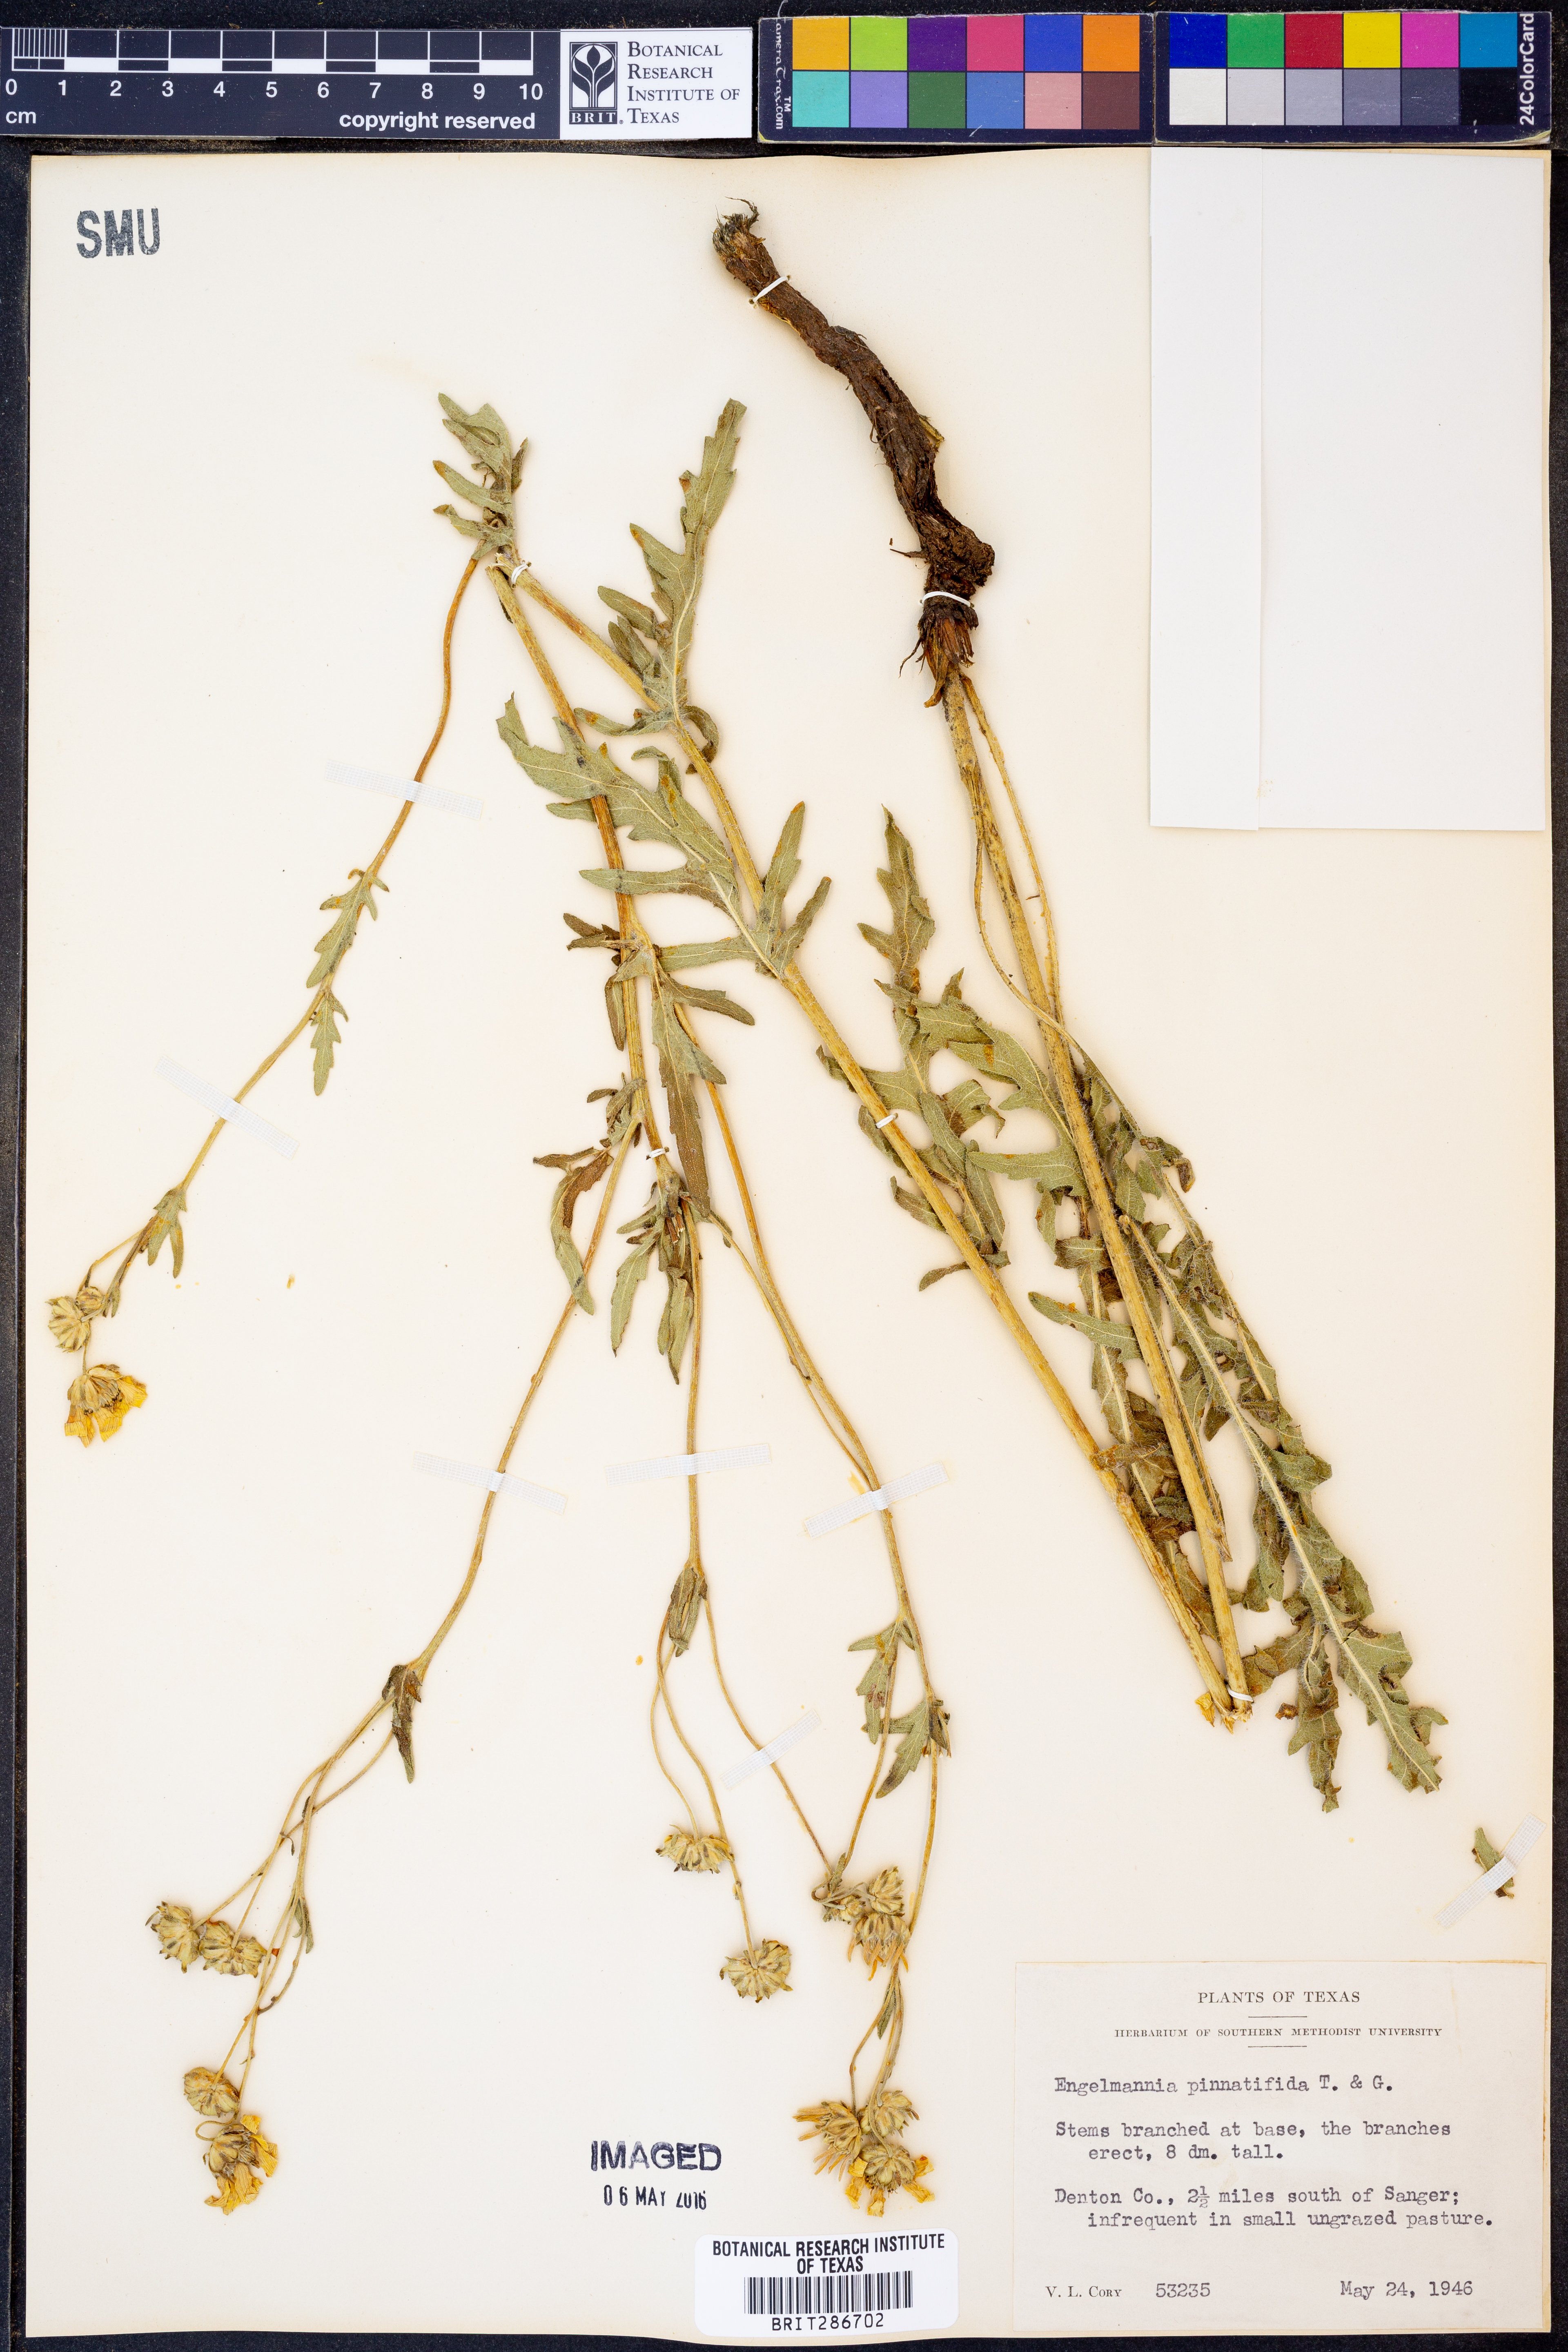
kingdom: Plantae
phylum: Tracheophyta
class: Magnoliopsida
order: Asterales
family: Asteraceae
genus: Engelmannia
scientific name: Engelmannia peristenia
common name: Engelmann's daisy
